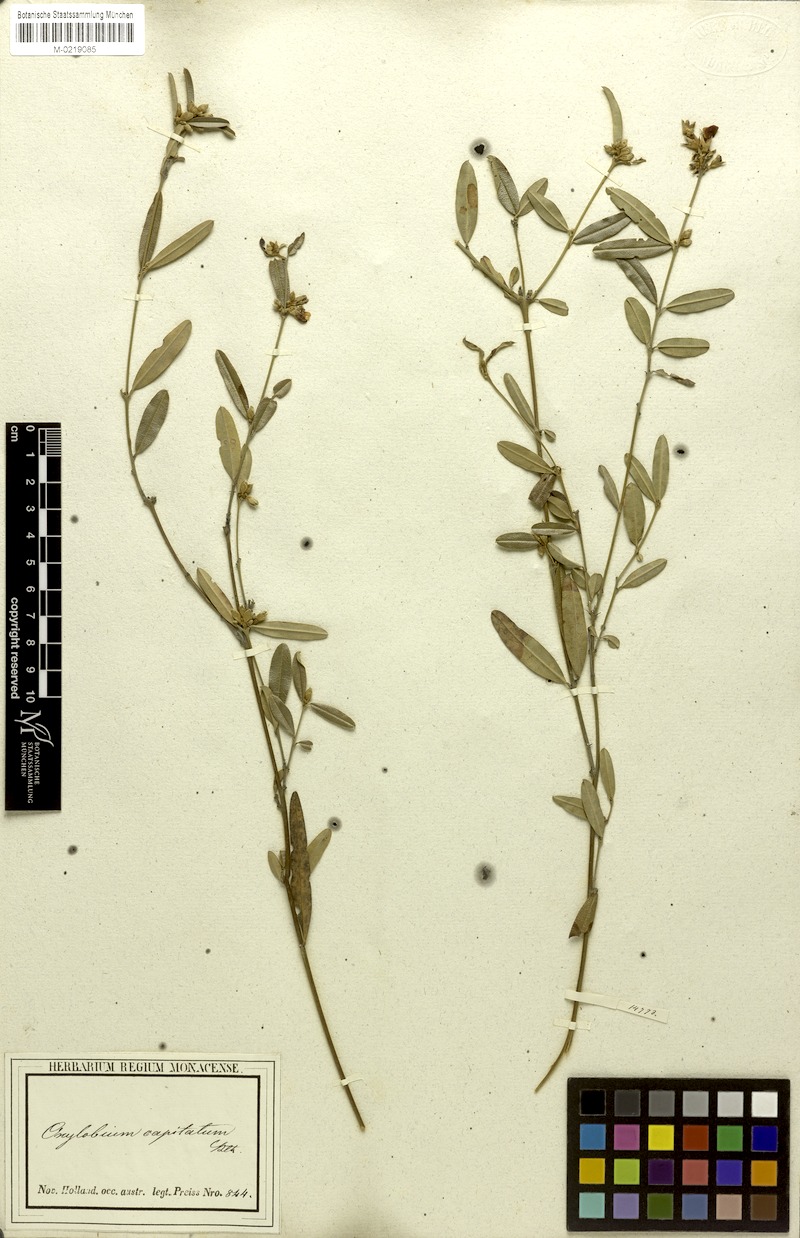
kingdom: Plantae
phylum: Tracheophyta
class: Magnoliopsida
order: Fabales
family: Fabaceae
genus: Gastrolobium
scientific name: Gastrolobium linearifolium
